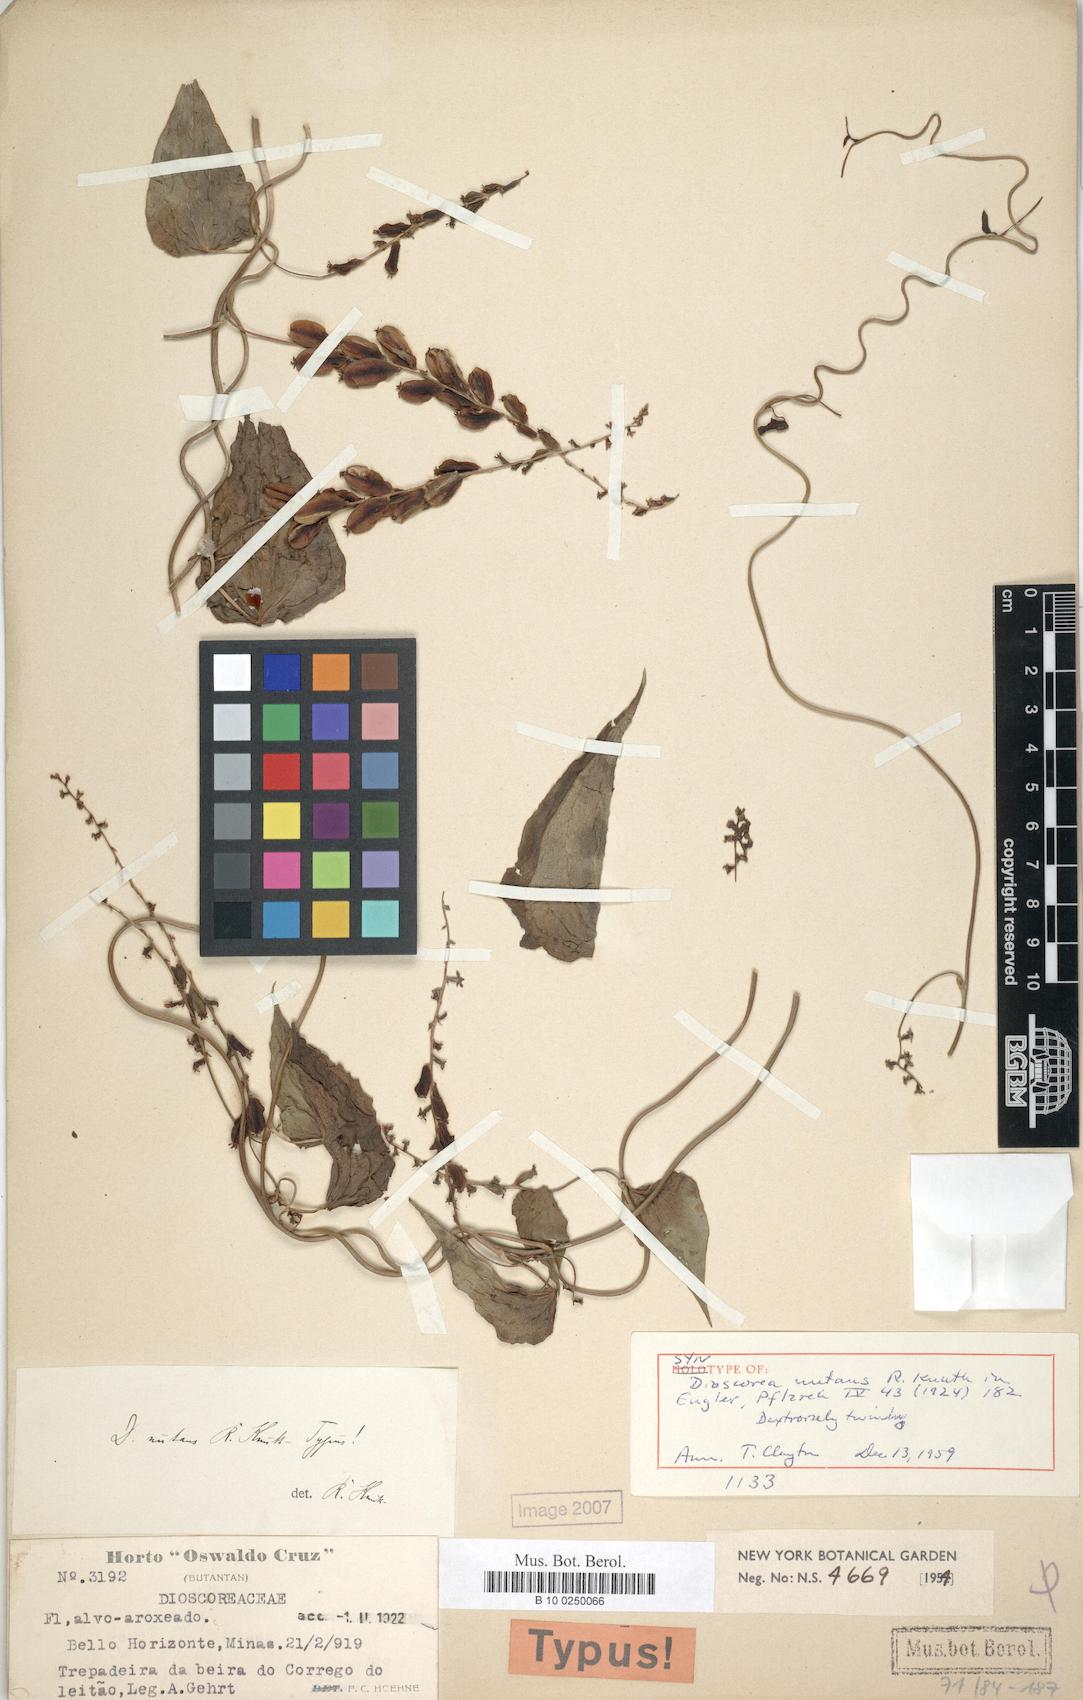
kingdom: Plantae
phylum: Tracheophyta
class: Liliopsida
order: Dioscoreales
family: Dioscoreaceae
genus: Dioscorea
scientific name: Dioscorea nutans
